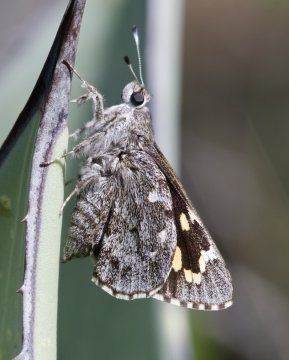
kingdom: Animalia
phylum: Arthropoda
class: Insecta
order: Lepidoptera
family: Hesperiidae
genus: Agathymus
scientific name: Agathymus evansi
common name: Huachuca Giant-Skipper
